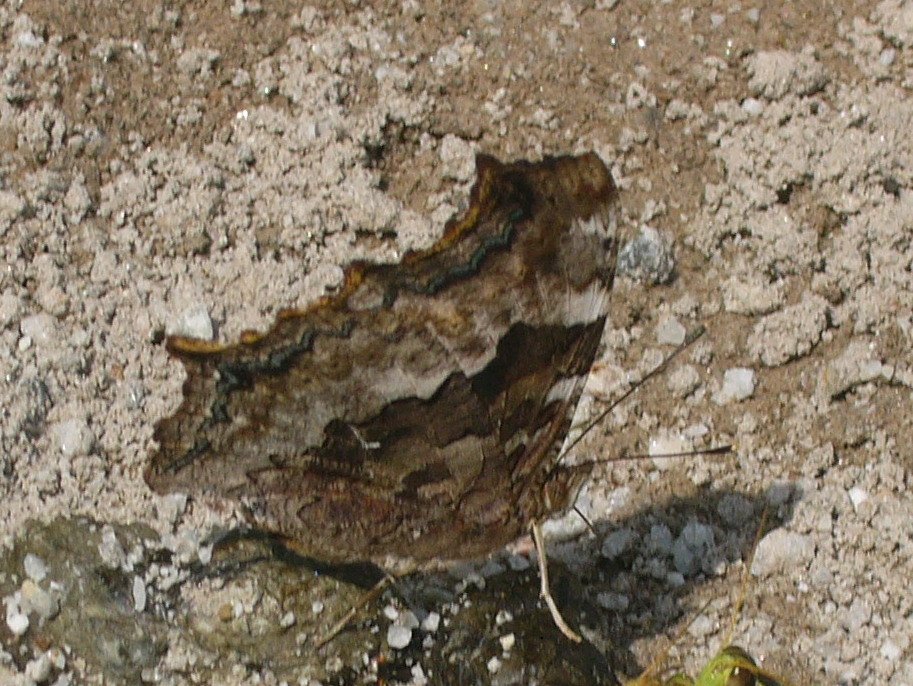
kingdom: Animalia
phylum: Arthropoda
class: Insecta
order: Lepidoptera
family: Nymphalidae
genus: Polygonia
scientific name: Polygonia vaualbum
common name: Compton Tortoiseshell
